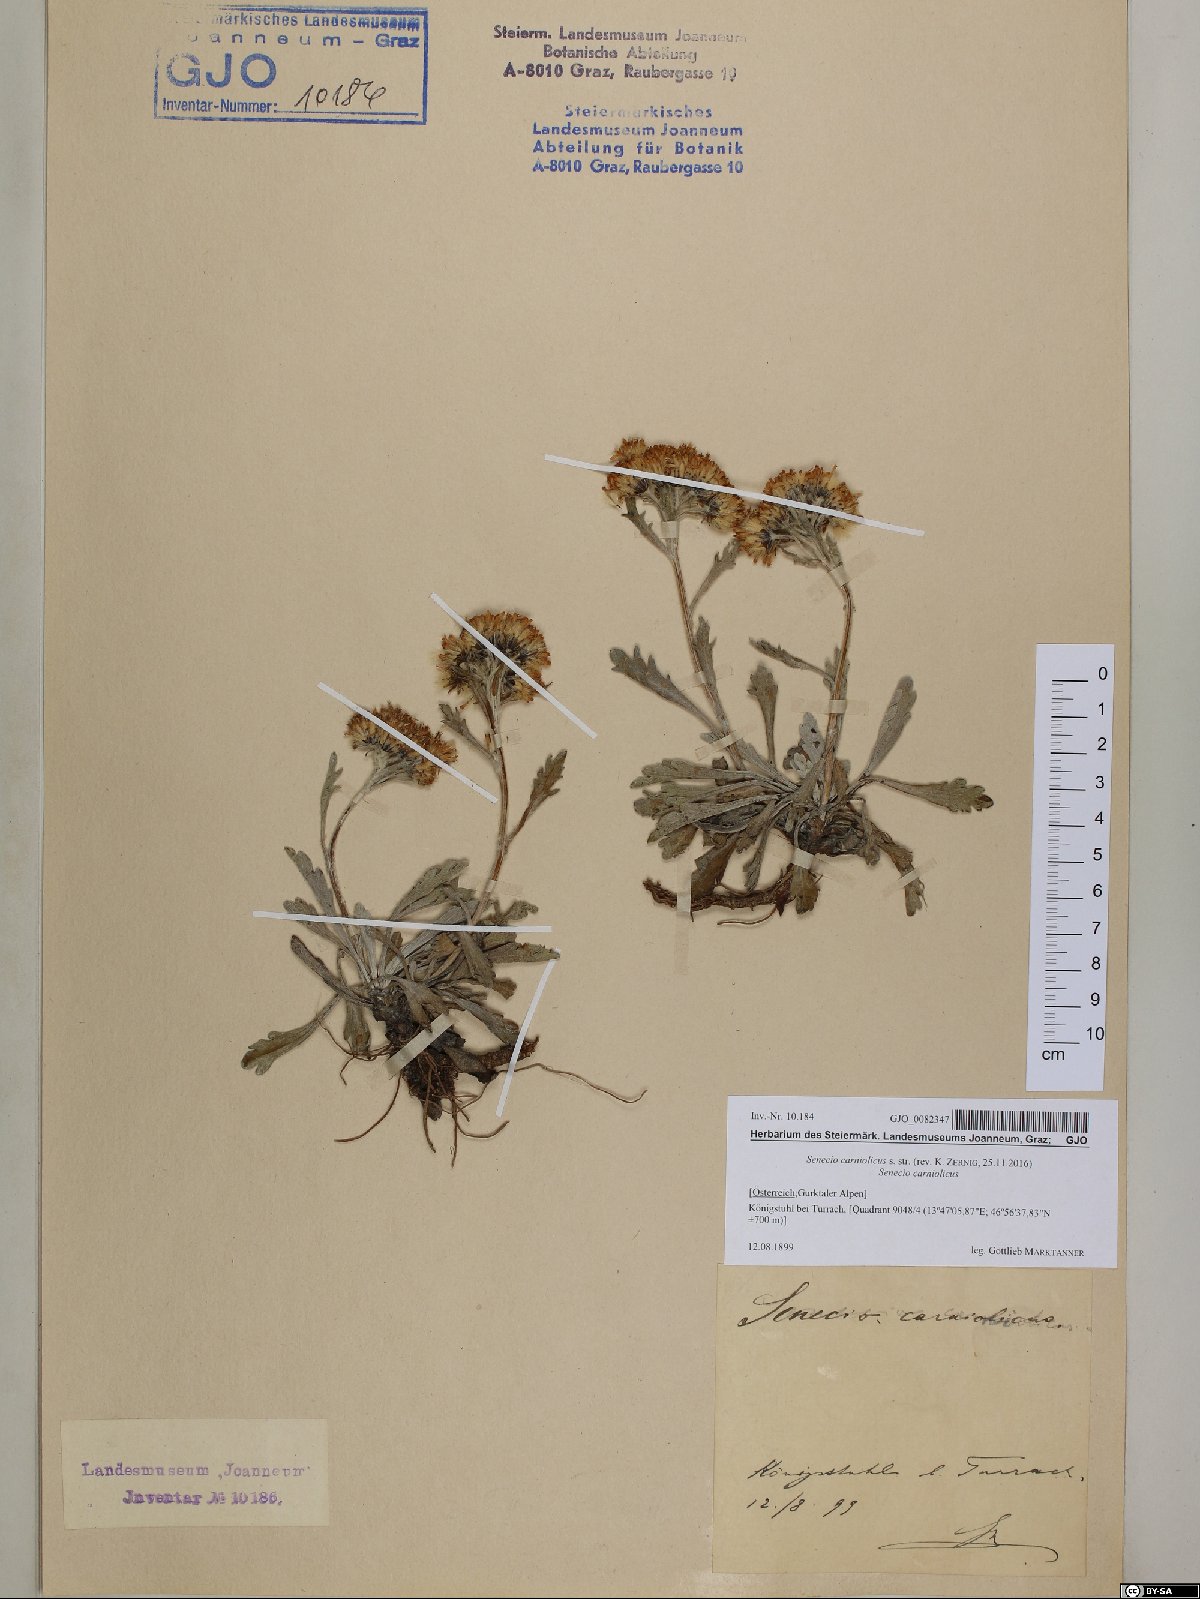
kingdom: Plantae
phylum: Tracheophyta
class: Magnoliopsida
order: Asterales
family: Asteraceae
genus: Jacobaea
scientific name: Jacobaea carniolica
